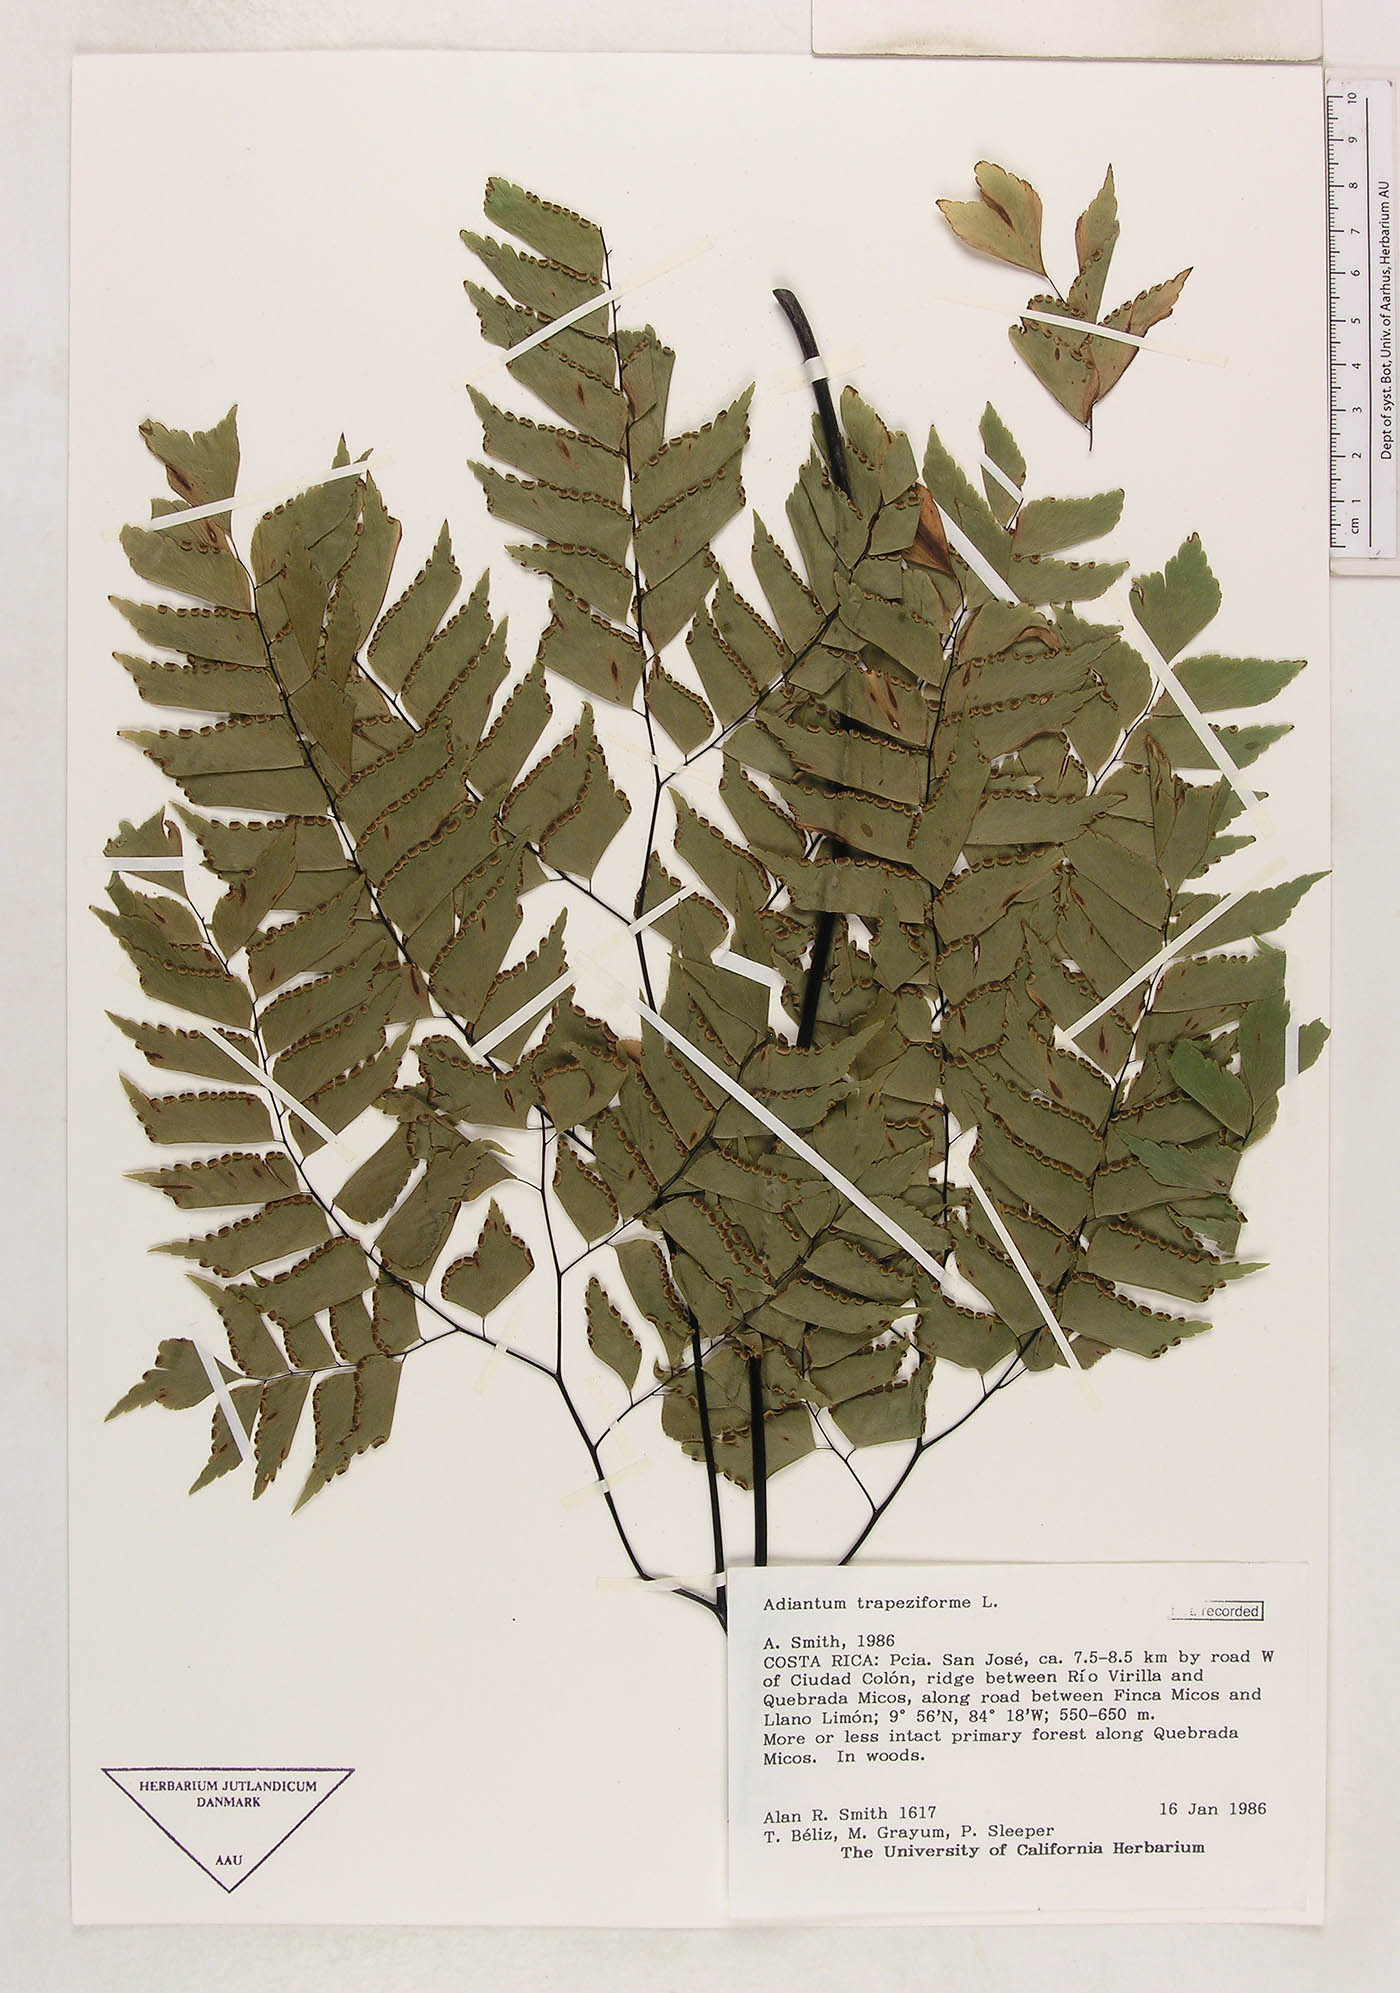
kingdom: Plantae
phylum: Tracheophyta
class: Polypodiopsida
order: Polypodiales
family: Pteridaceae
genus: Adiantum
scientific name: Adiantum
